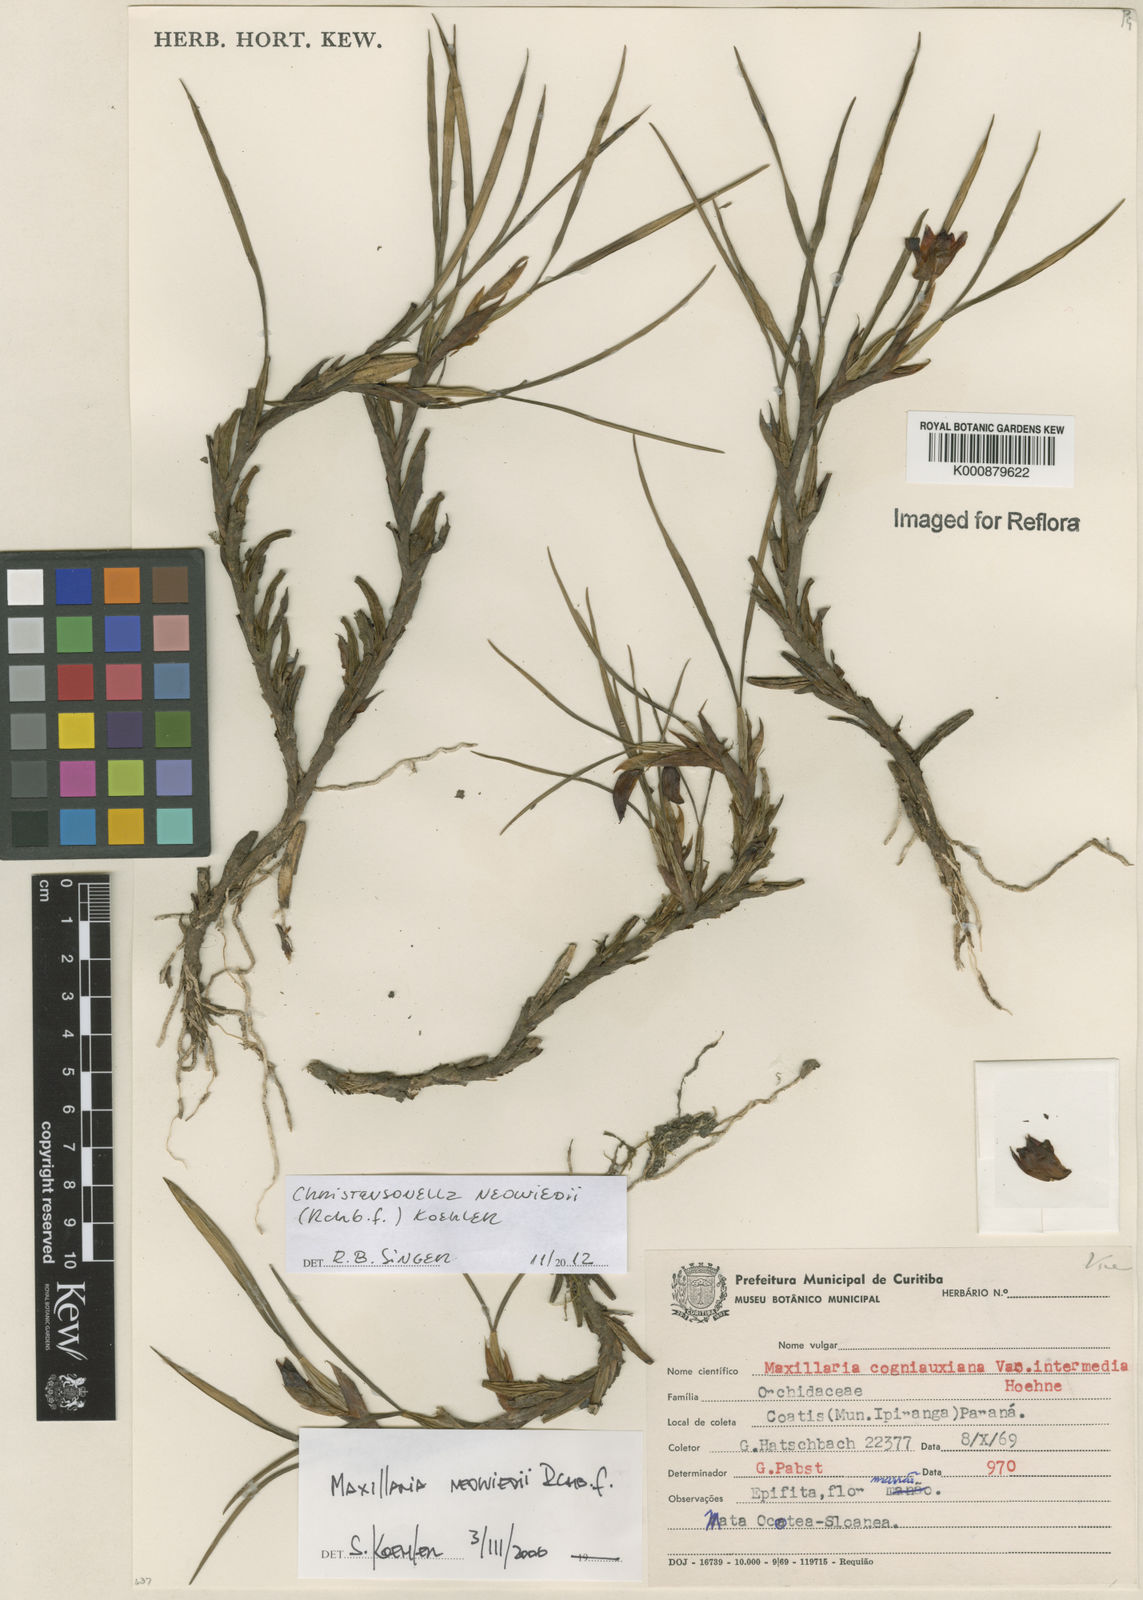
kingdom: Plantae
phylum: Tracheophyta
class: Liliopsida
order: Asparagales
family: Orchidaceae
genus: Maxillaria
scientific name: Maxillaria
